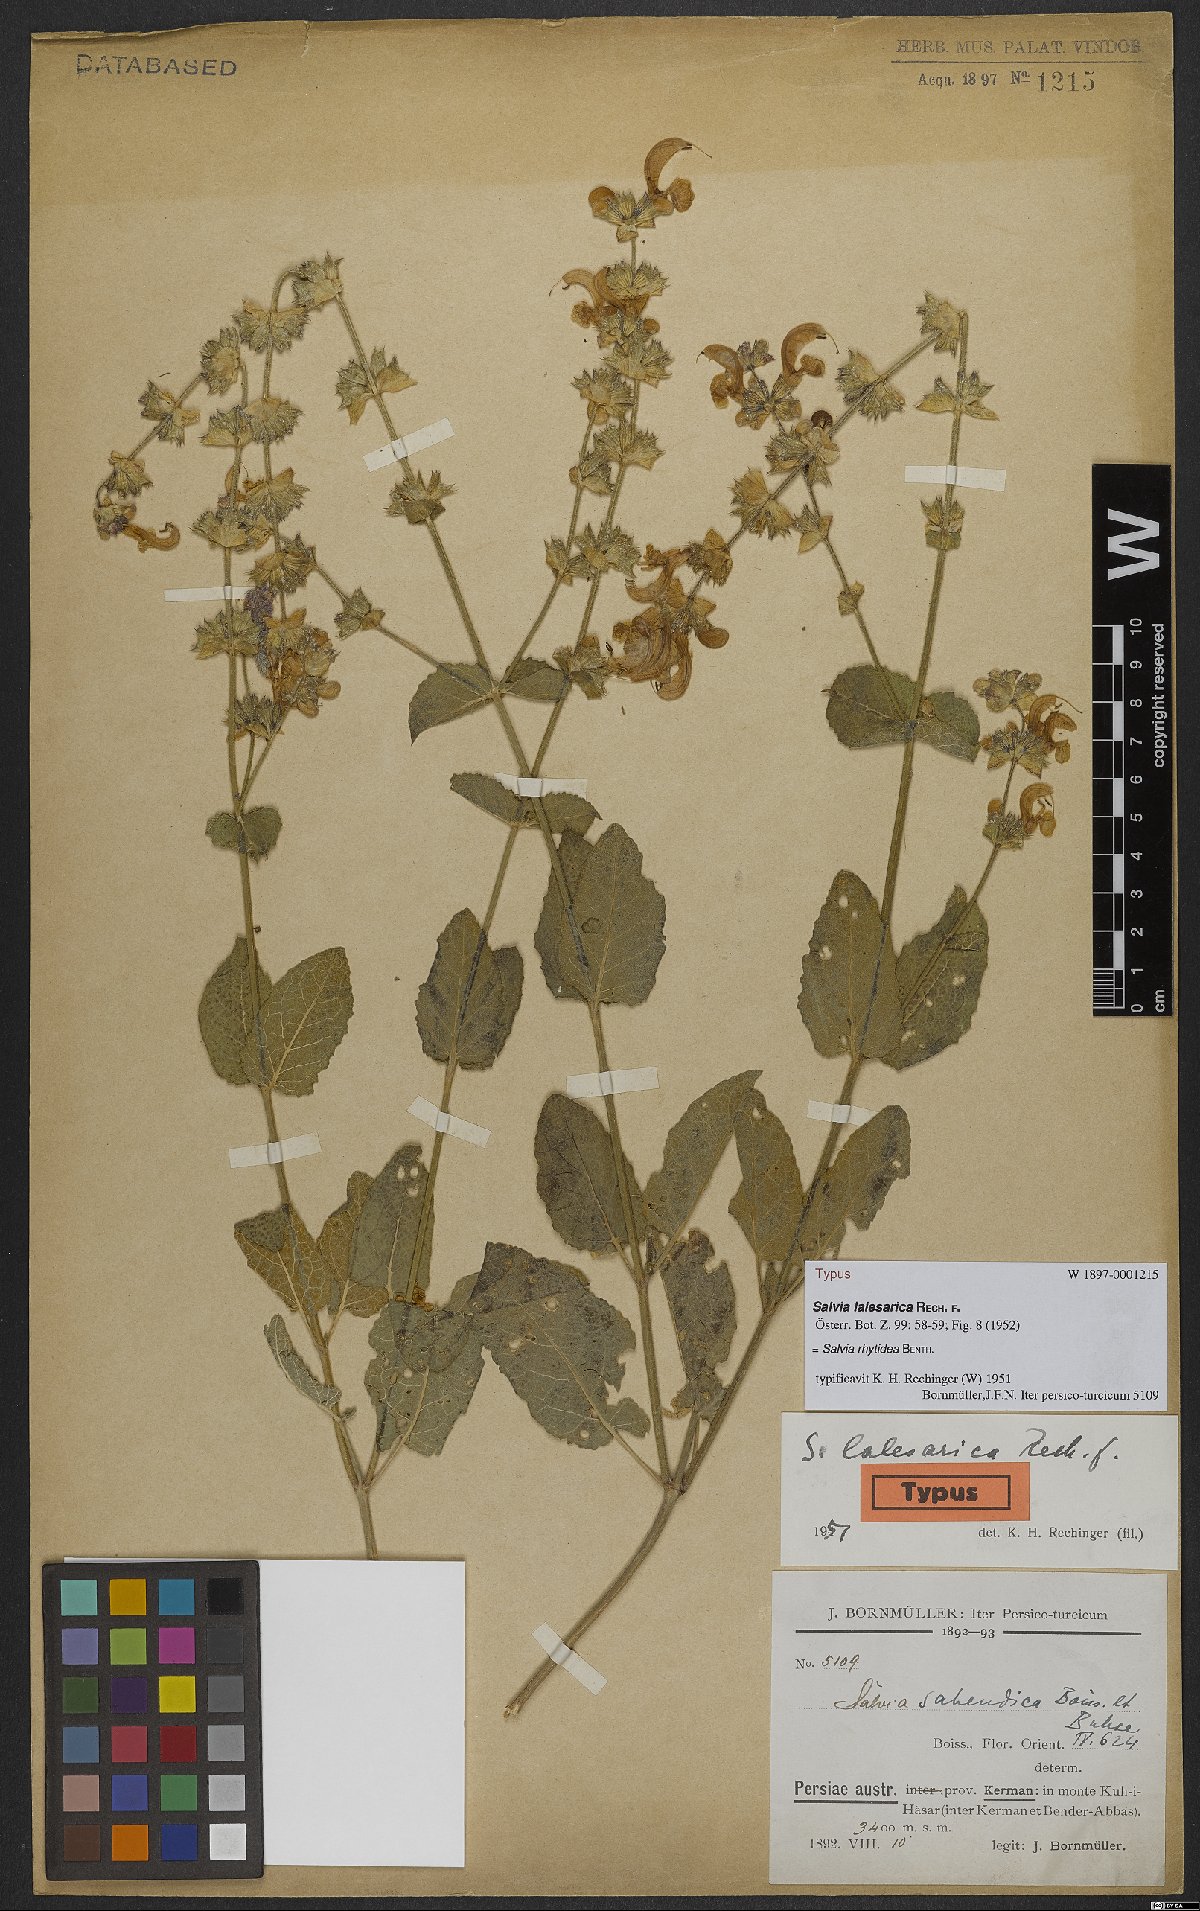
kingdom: Plantae
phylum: Tracheophyta
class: Magnoliopsida
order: Lamiales
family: Lamiaceae
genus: Salvia
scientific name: Salvia rhytidea
